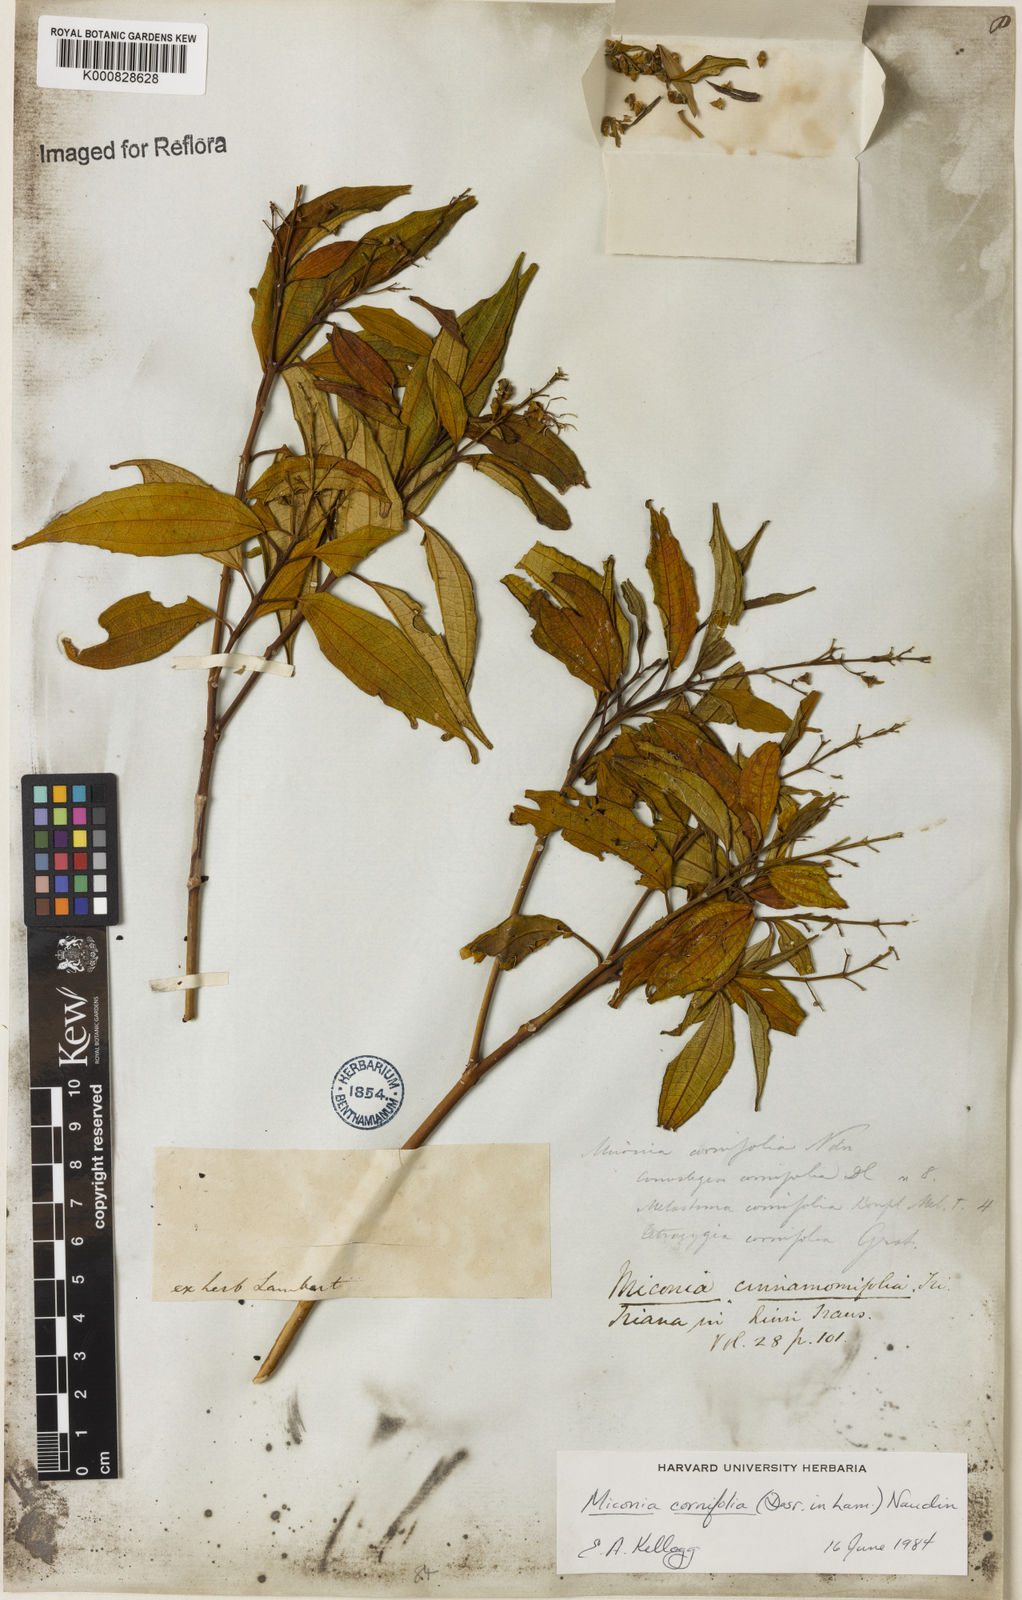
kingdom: Plantae
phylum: Tracheophyta
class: Magnoliopsida
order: Myrtales
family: Melastomataceae
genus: Miconia
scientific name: Miconia cinnamomifolia
